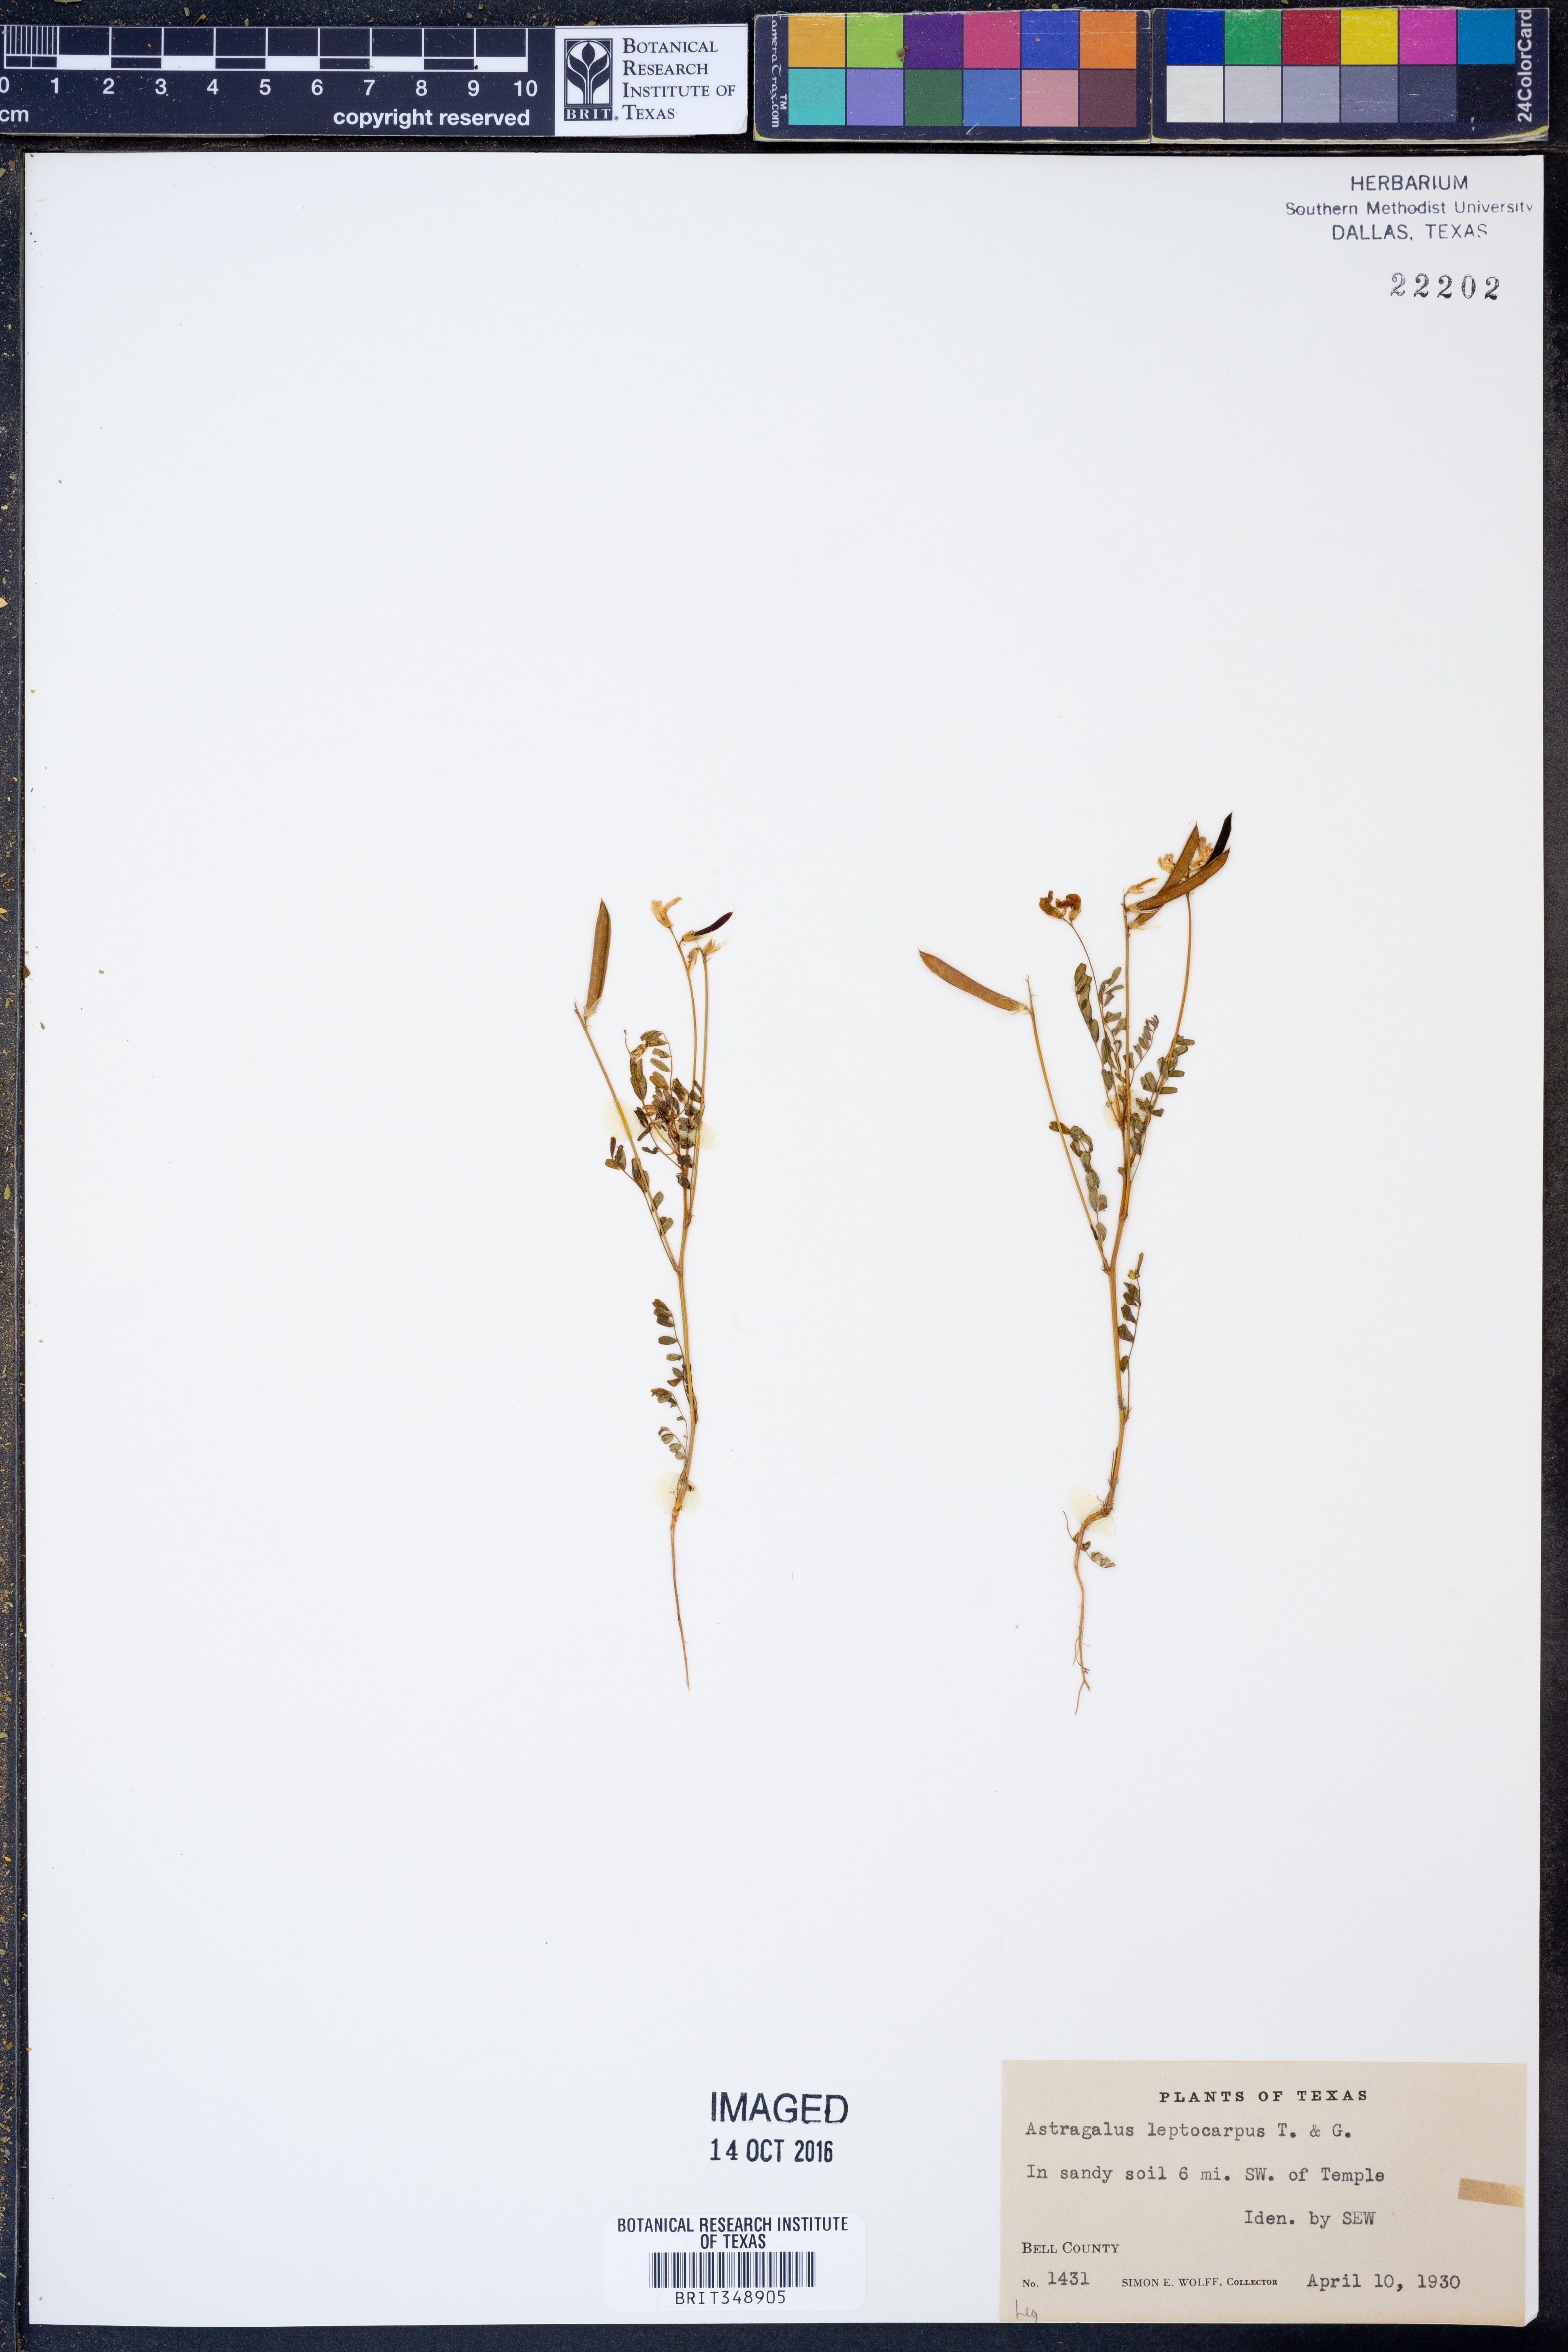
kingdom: Plantae
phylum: Tracheophyta
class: Magnoliopsida
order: Fabales
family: Fabaceae
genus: Astragalus
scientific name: Astragalus leptocarpus
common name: Bodkin milk-vetch
